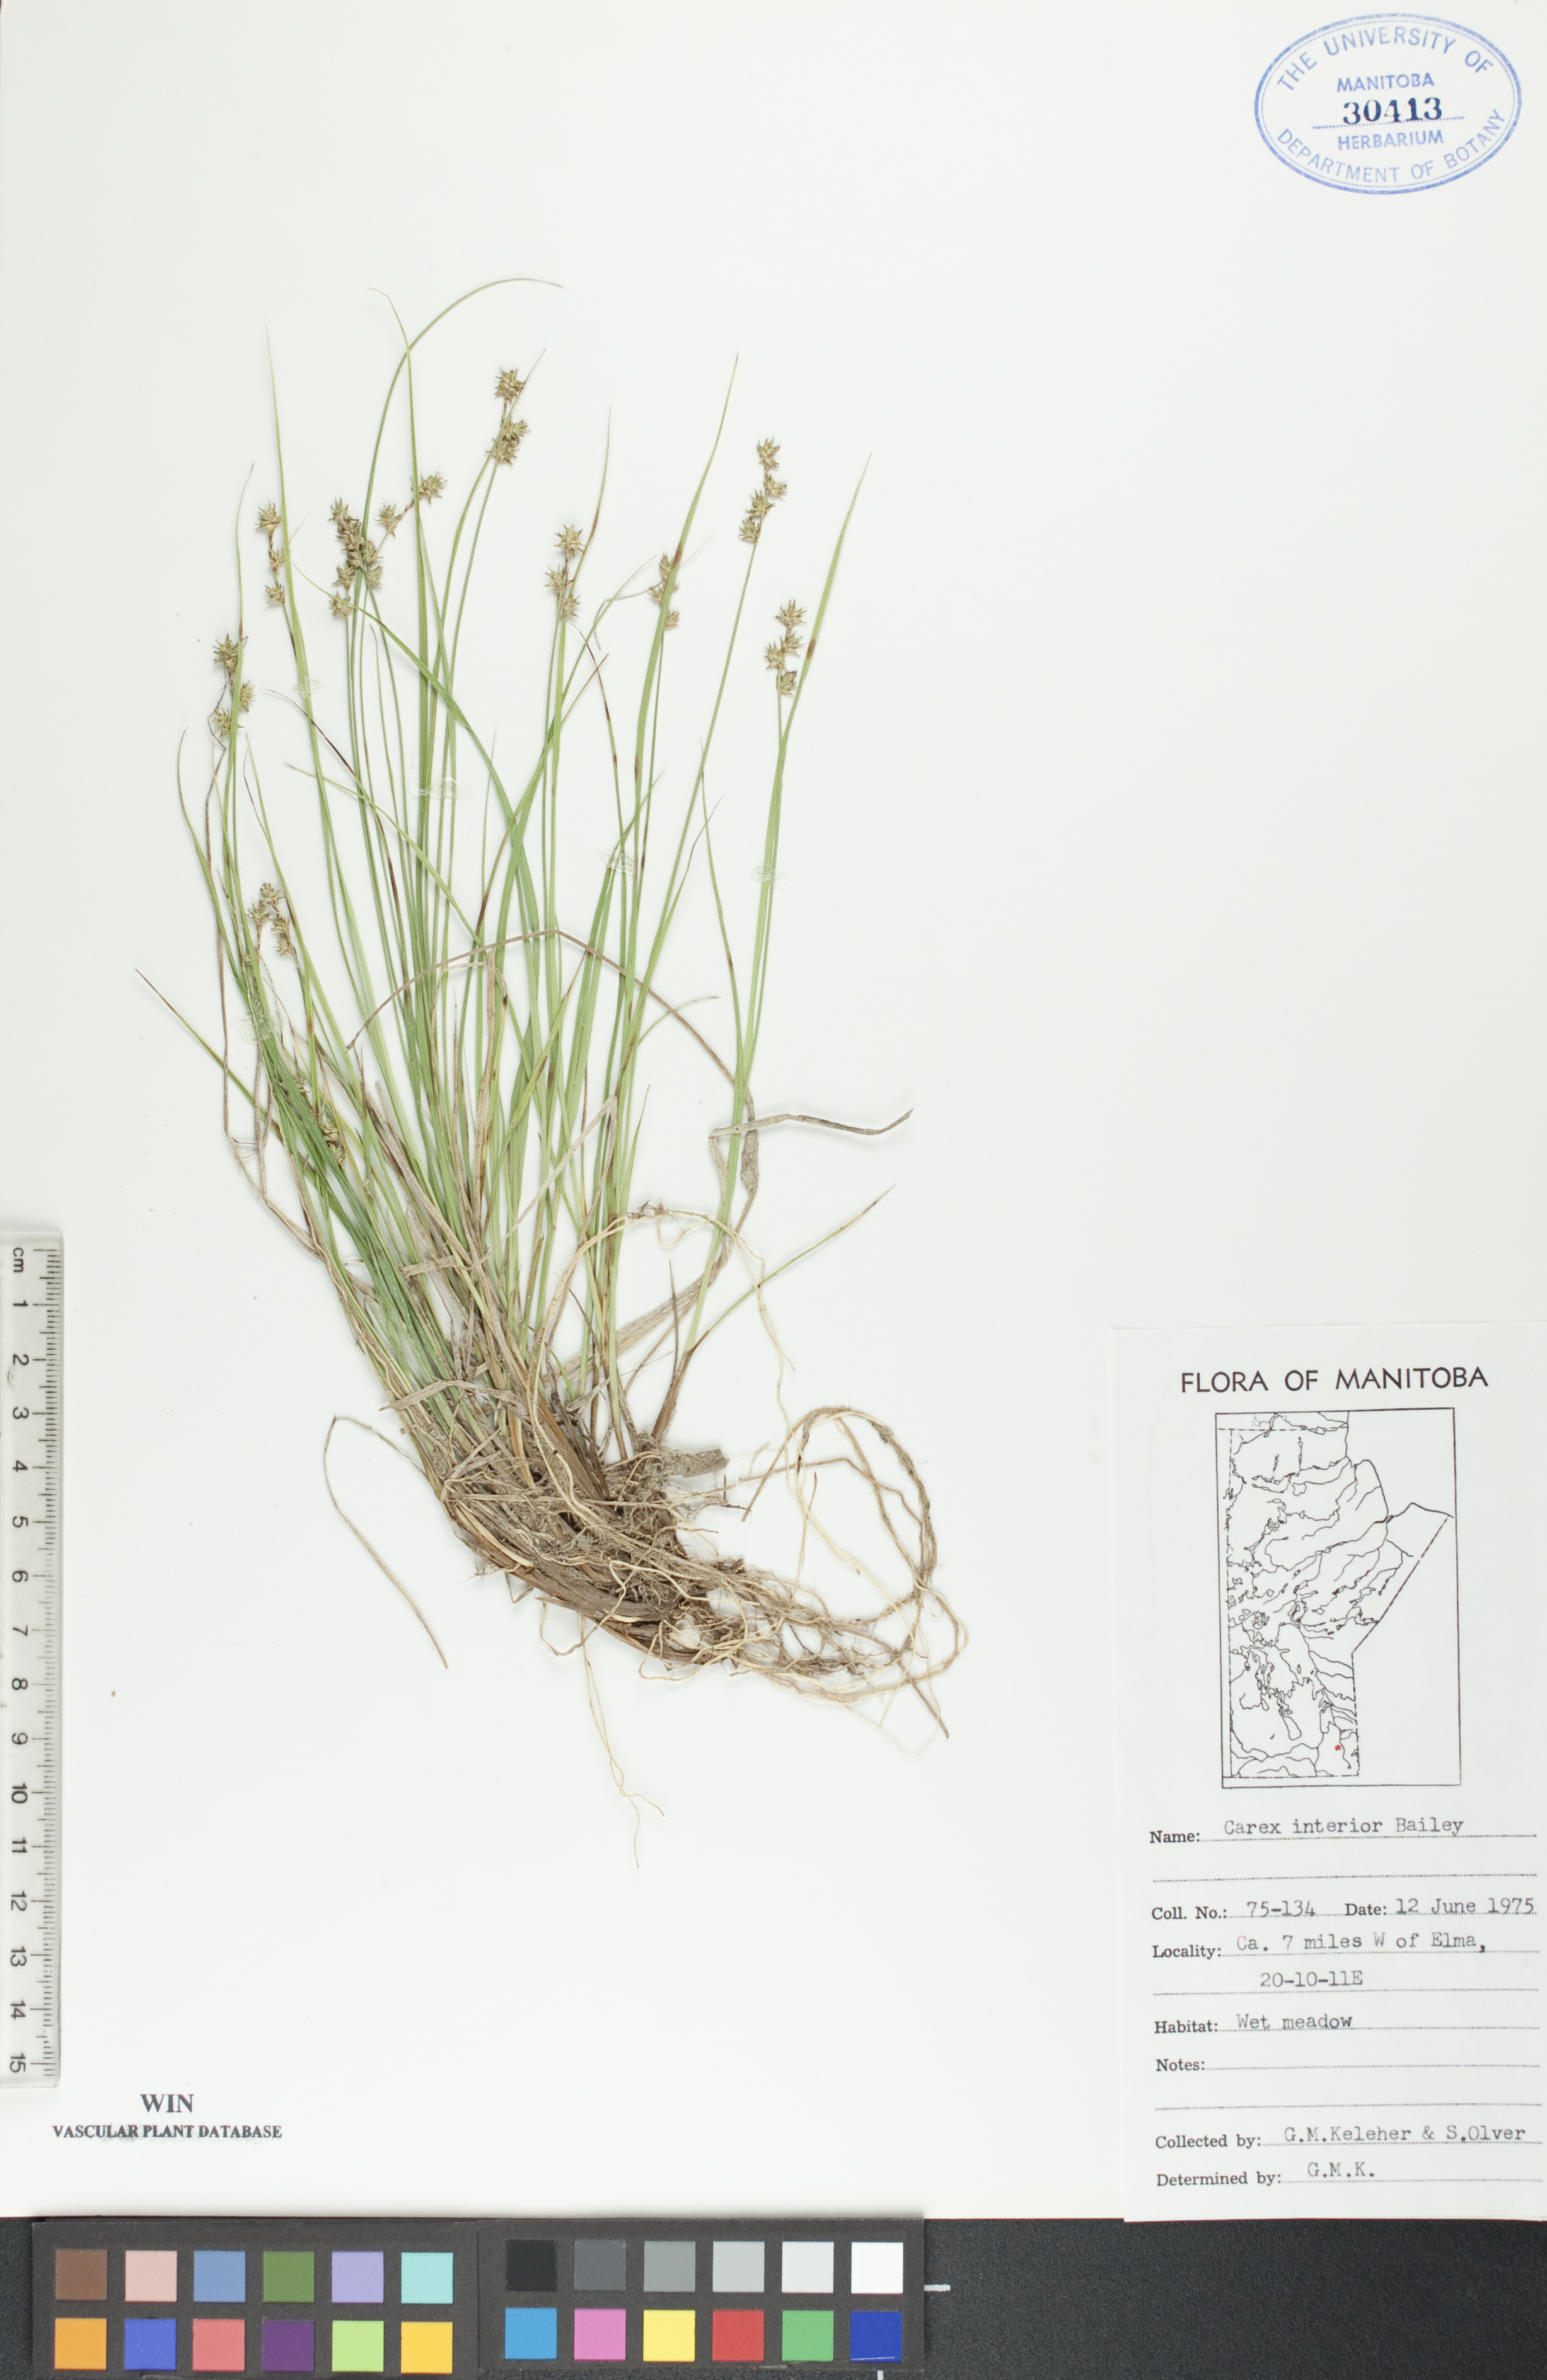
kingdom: Plantae
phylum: Tracheophyta
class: Liliopsida
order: Poales
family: Cyperaceae
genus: Carex
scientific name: Carex interior
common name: Inland sedge
